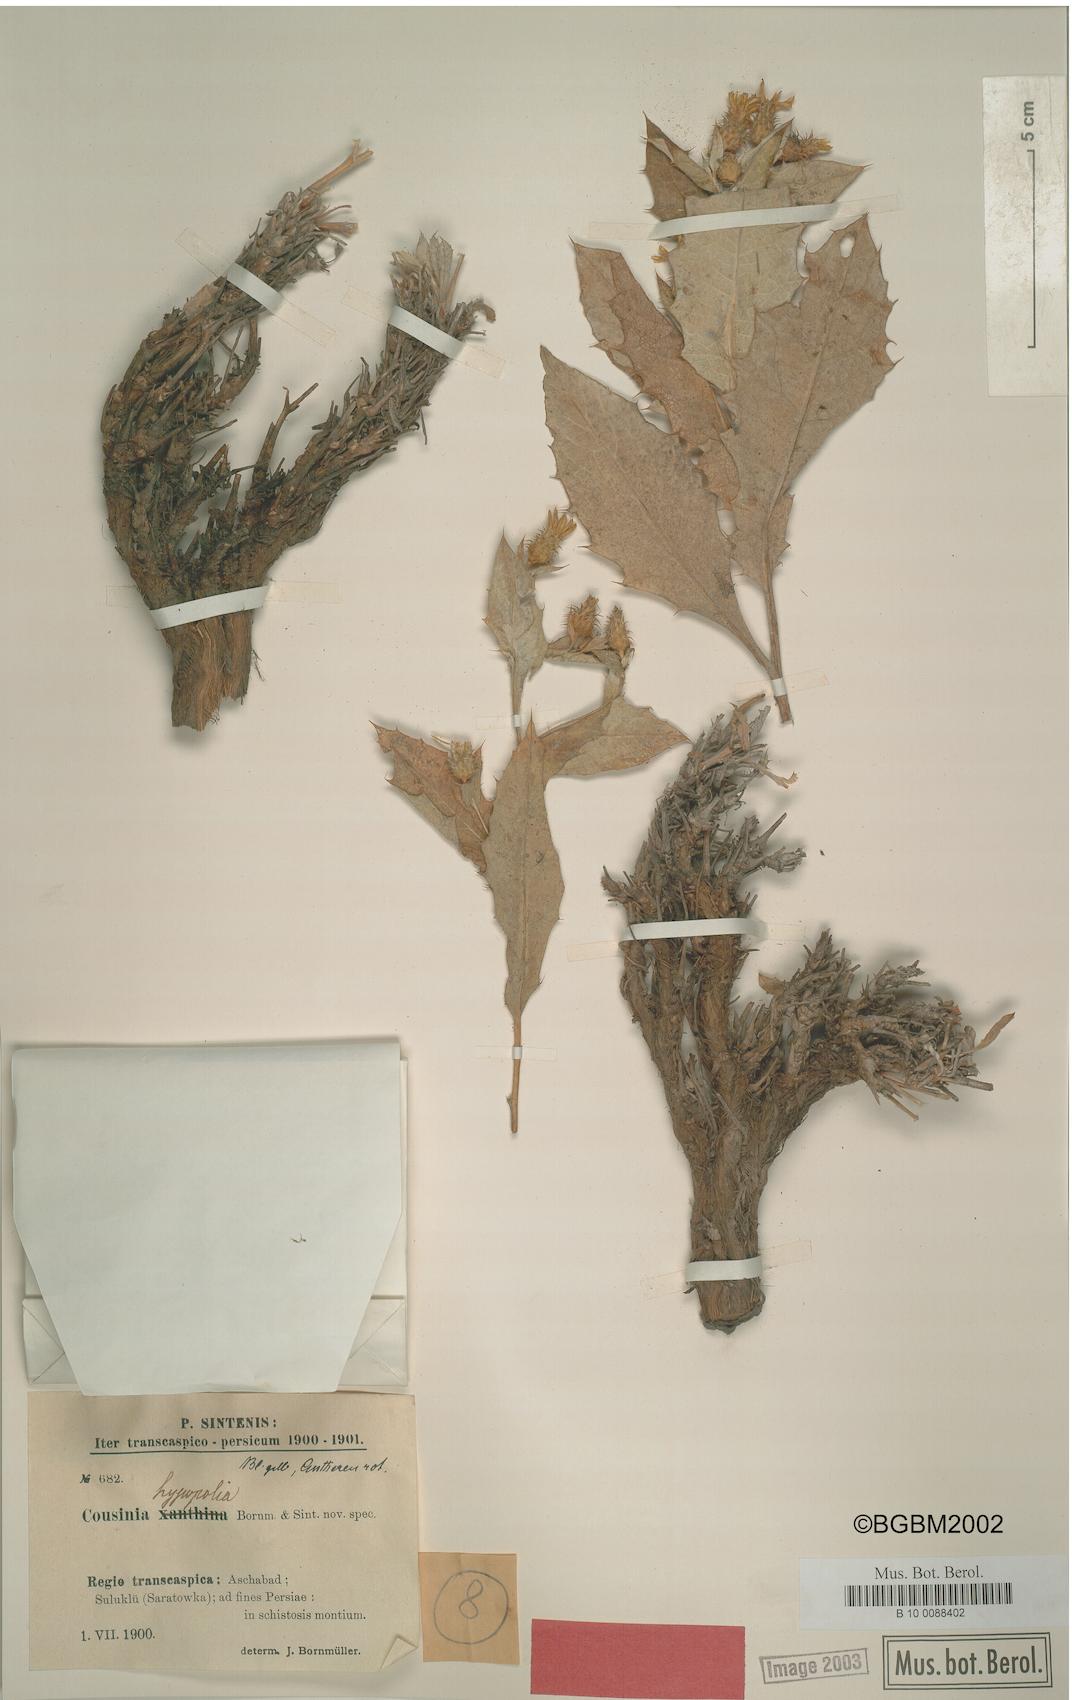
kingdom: Plantae
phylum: Tracheophyta
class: Magnoliopsida
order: Asterales
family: Asteraceae
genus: Cousinia
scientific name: Cousinia hypopolia
